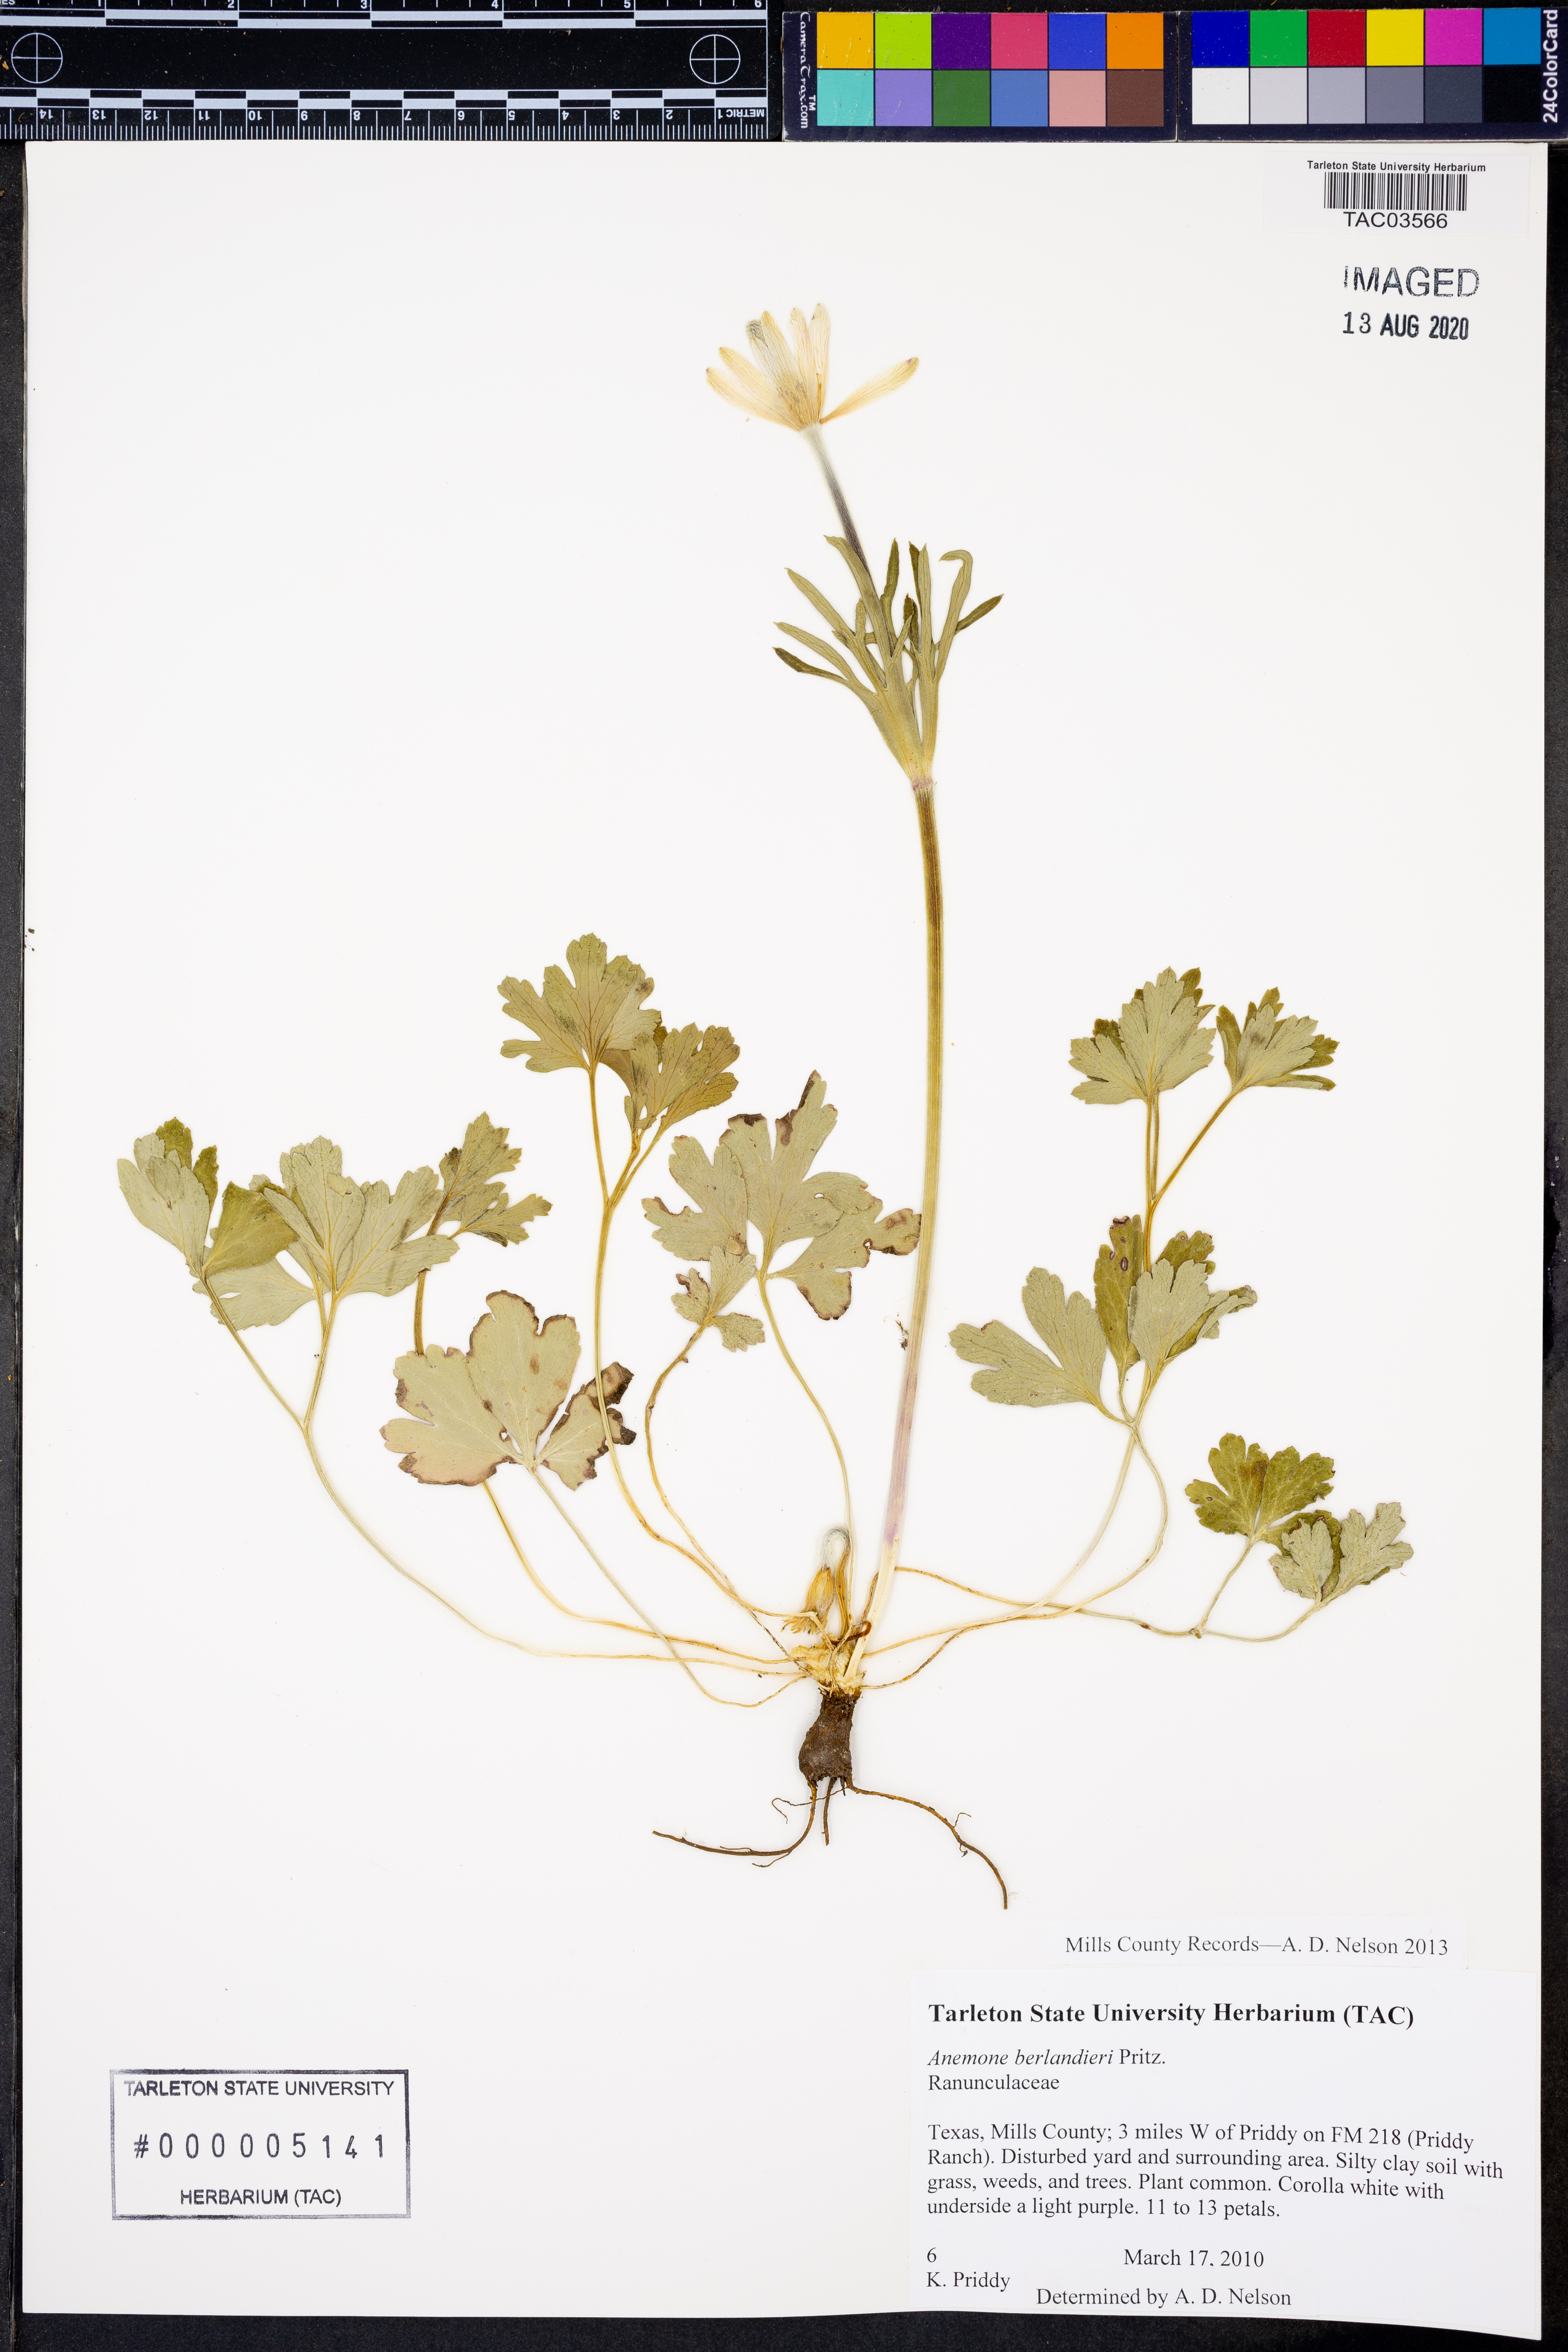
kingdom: Plantae
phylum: Tracheophyta
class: Magnoliopsida
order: Ranunculales
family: Ranunculaceae
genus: Anemone
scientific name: Anemone berlandieri
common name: Ten-petal anemone
